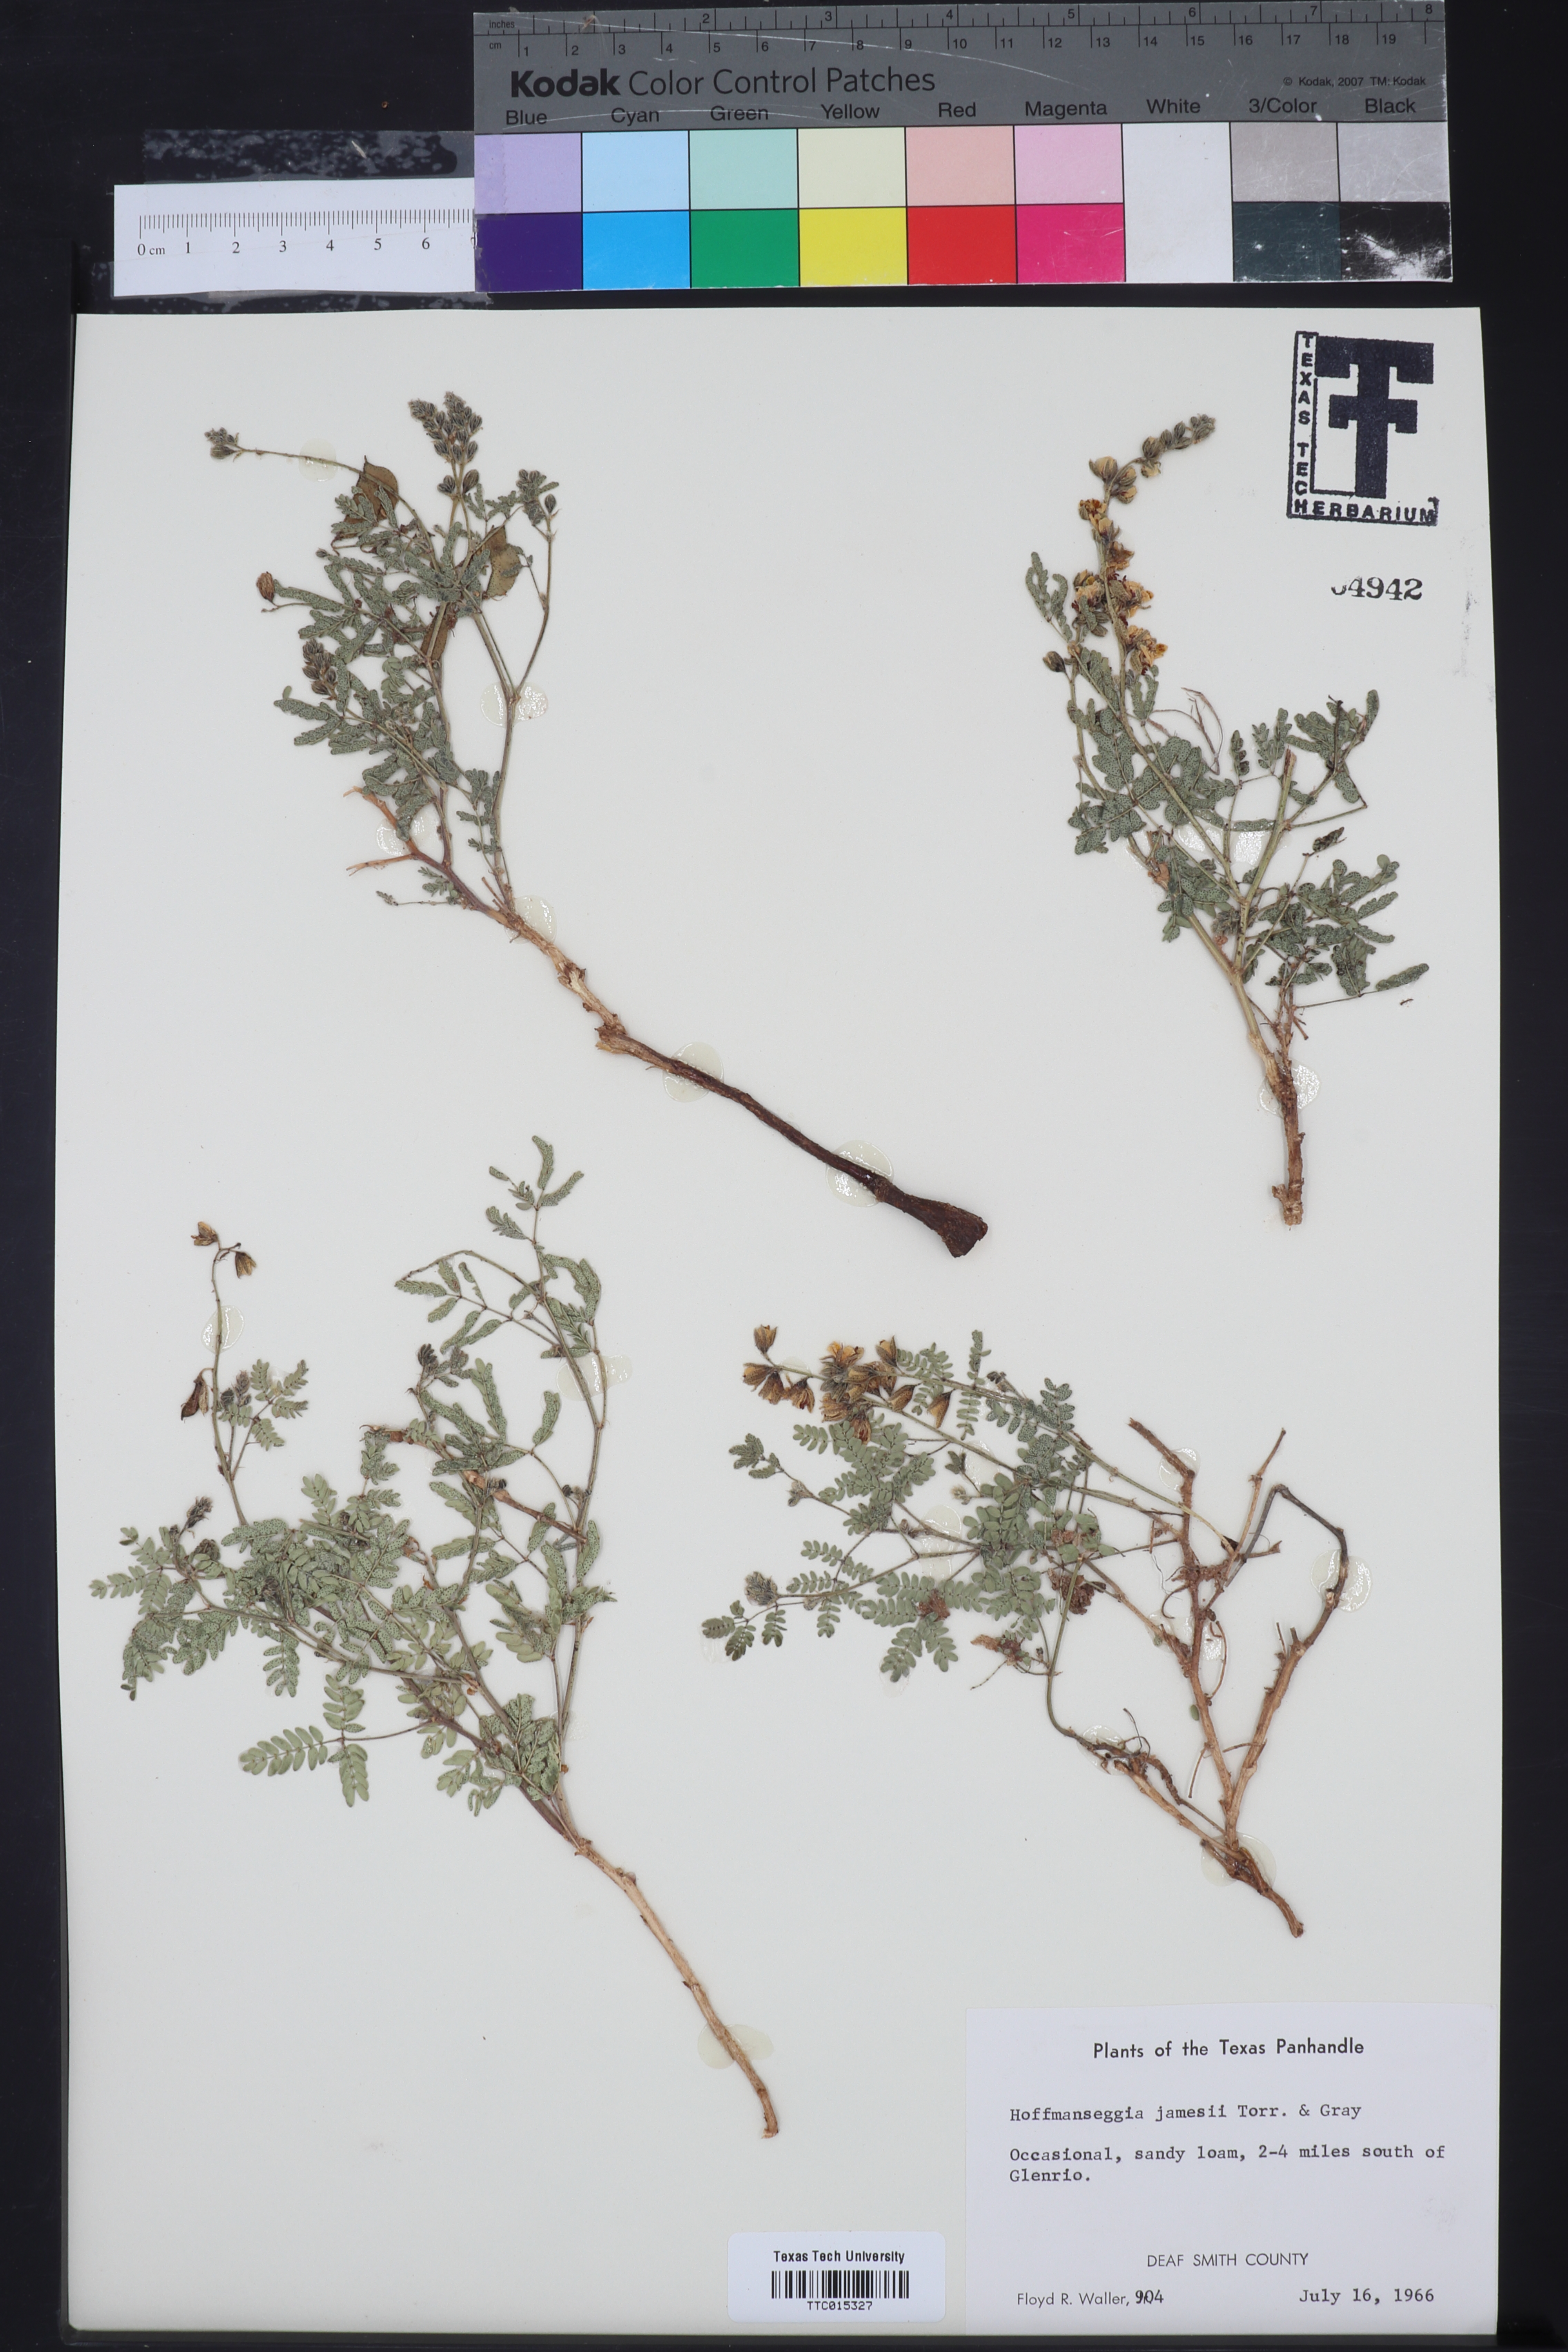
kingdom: Plantae
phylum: Tracheophyta
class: Magnoliopsida
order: Fabales
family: Fabaceae
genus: Pomaria
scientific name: Pomaria jamesii
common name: James' caesalpinia
